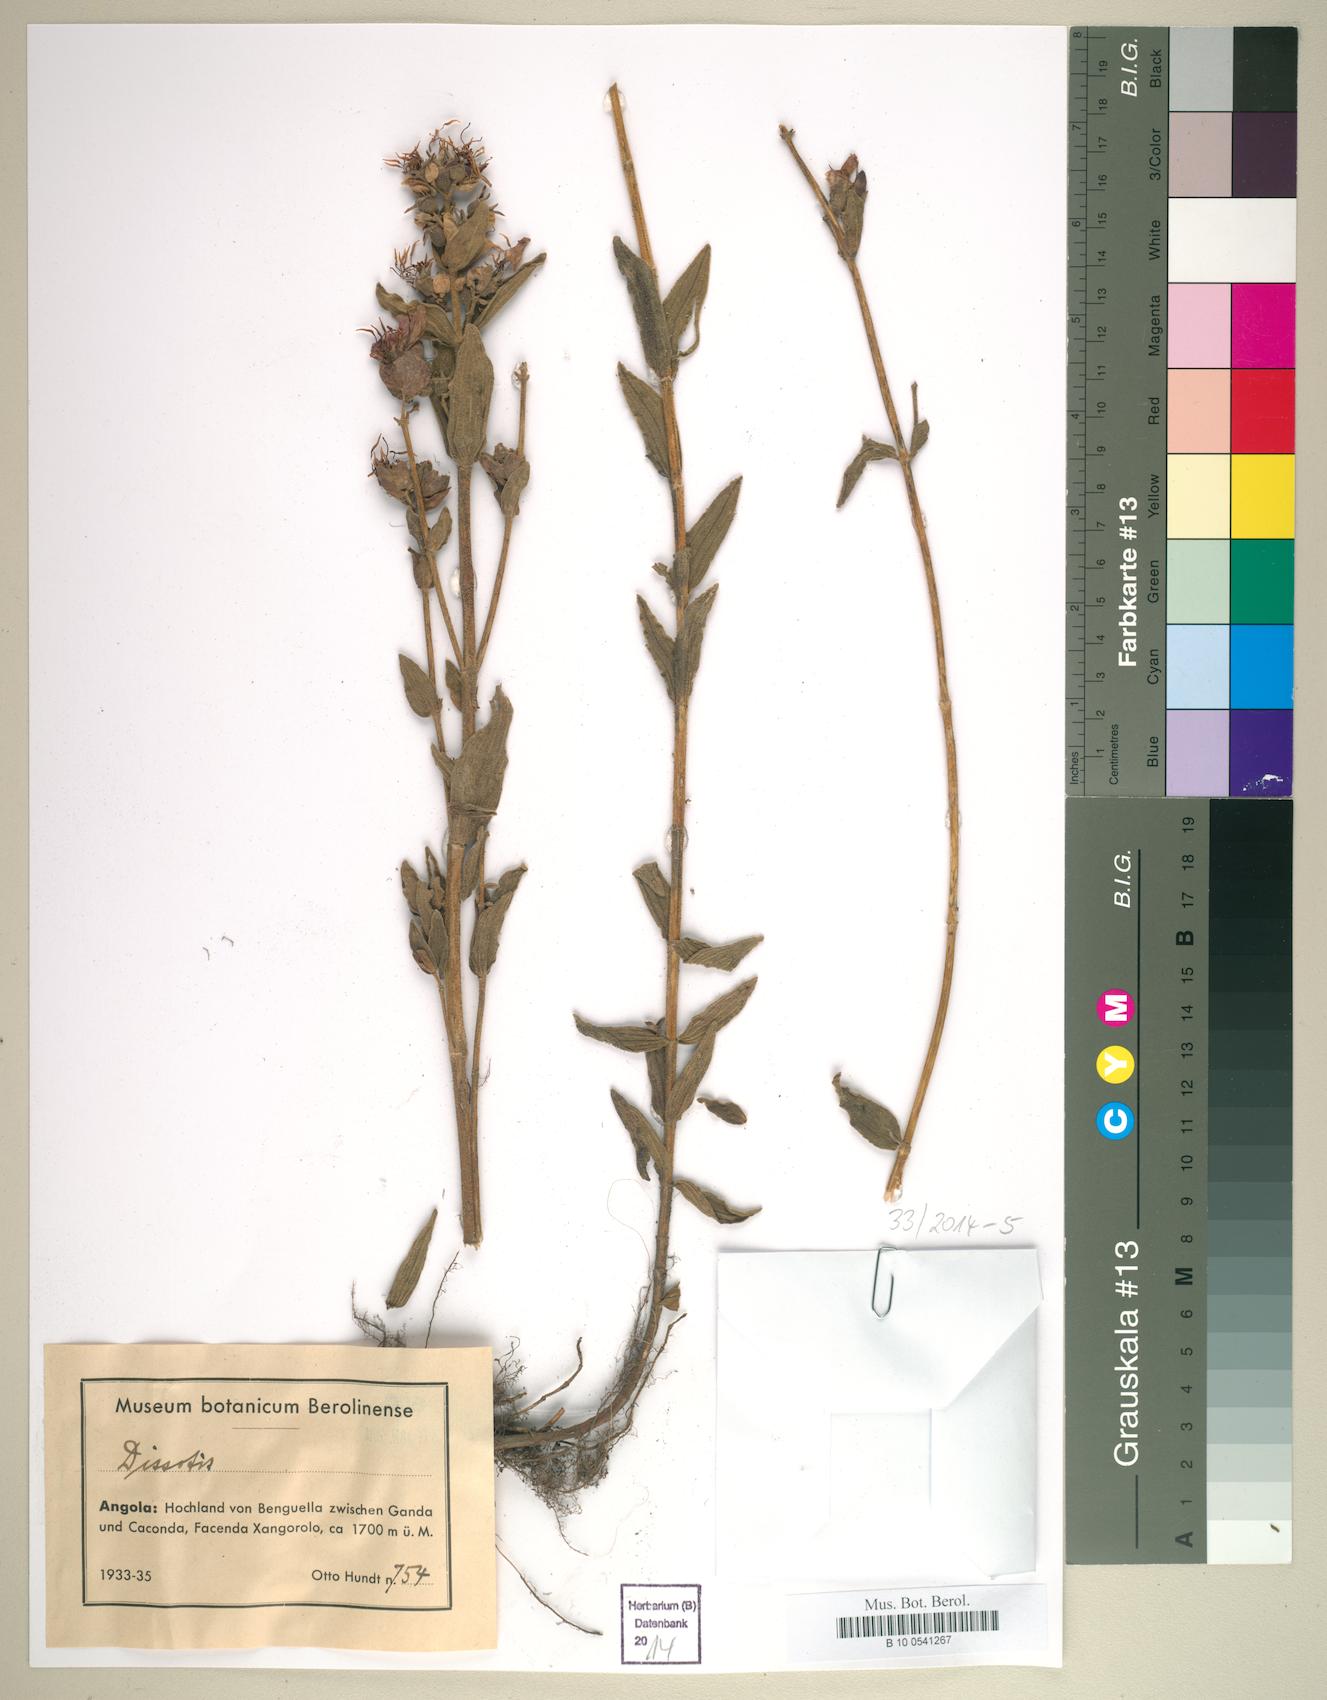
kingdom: Plantae
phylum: Tracheophyta
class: Magnoliopsida
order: Myrtales
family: Melastomataceae
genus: Dissotis
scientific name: Dissotis
